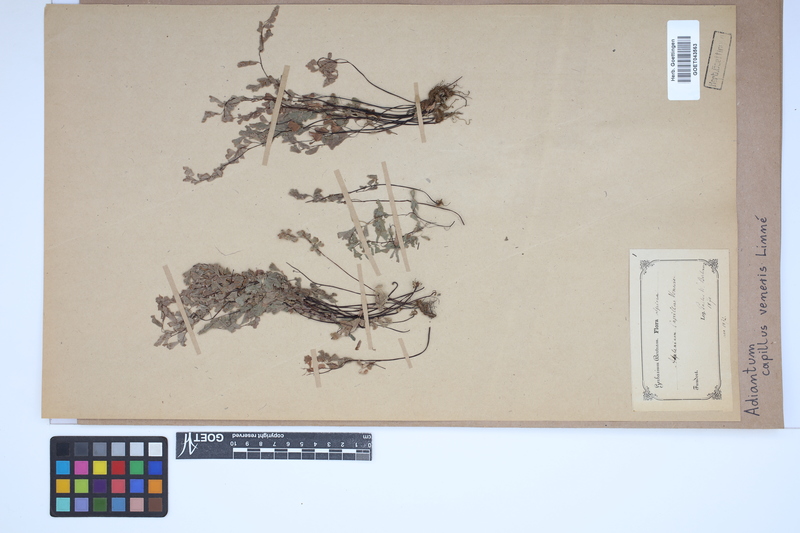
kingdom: Plantae
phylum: Tracheophyta
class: Polypodiopsida
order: Polypodiales
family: Pteridaceae
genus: Adiantum
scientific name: Adiantum capillus-veneris
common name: Maidenhair fern
